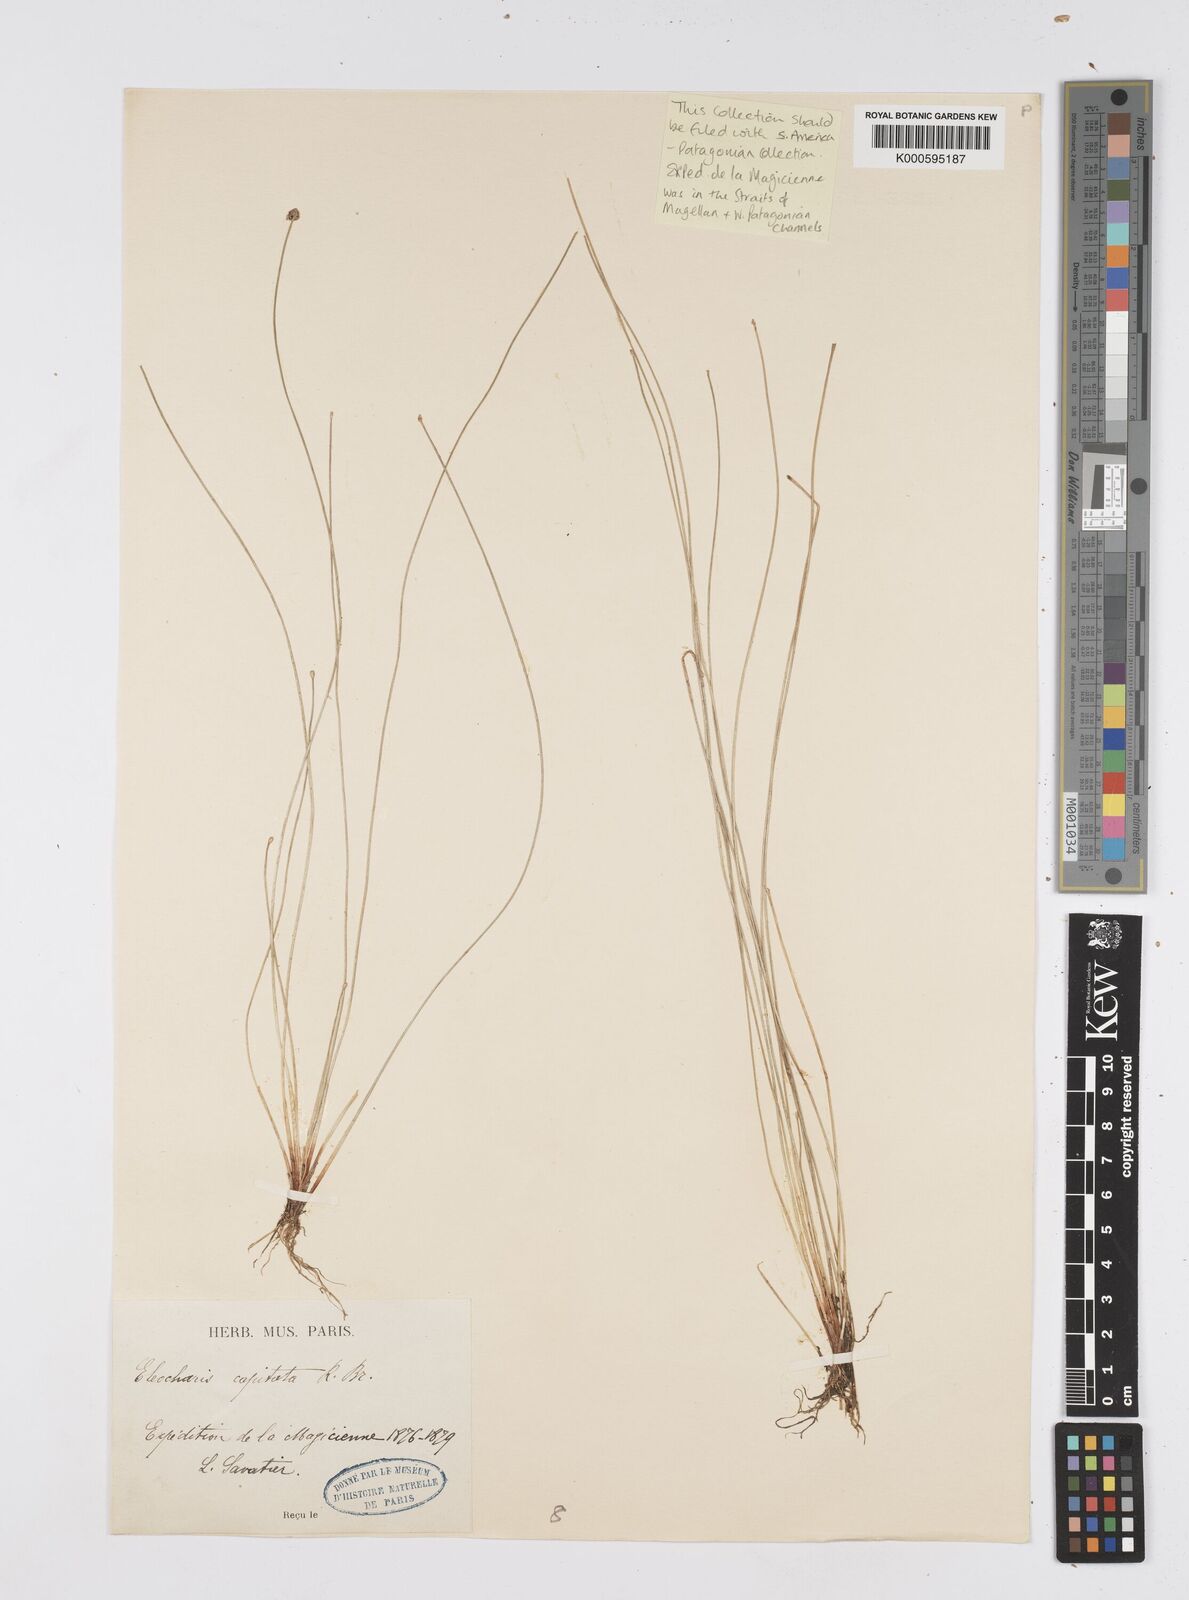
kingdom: Plantae
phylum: Tracheophyta
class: Liliopsida
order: Poales
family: Cyperaceae
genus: Eleocharis
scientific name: Eleocharis geniculata
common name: Canada spikesedge
